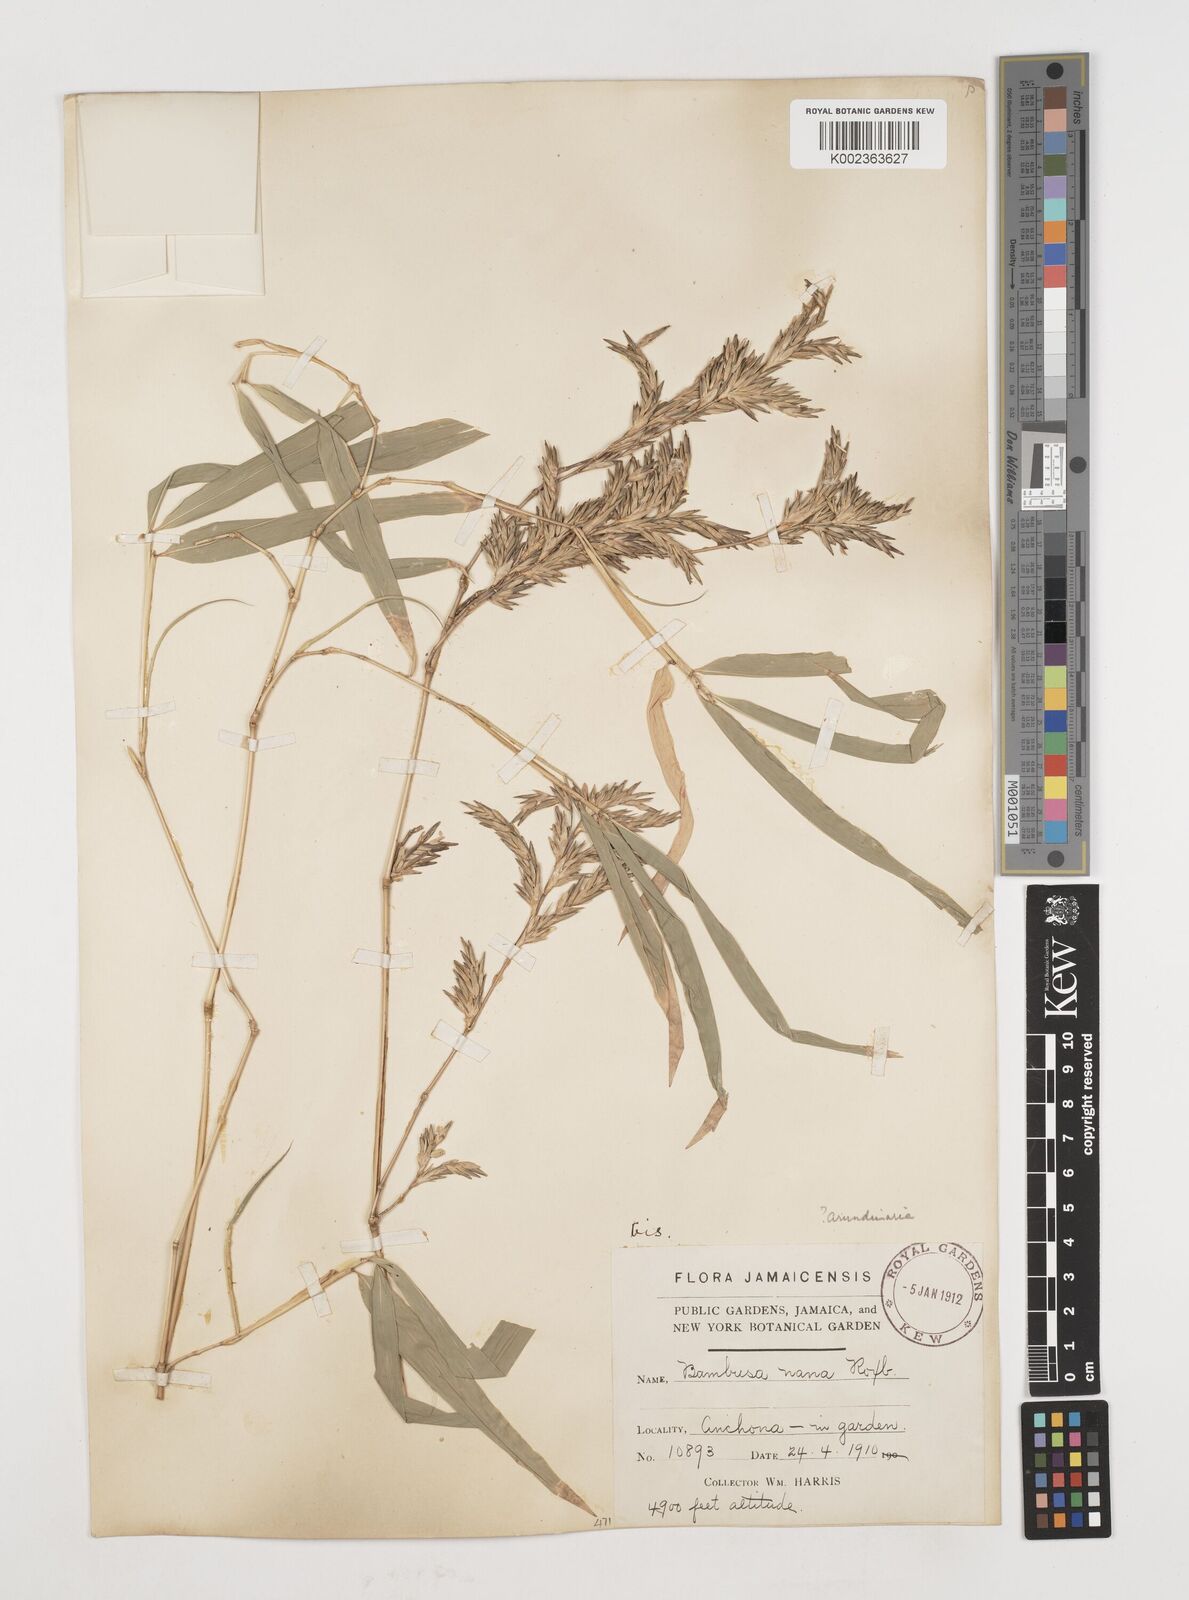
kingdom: Plantae
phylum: Tracheophyta
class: Liliopsida
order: Poales
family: Poaceae
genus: Himalayacalamus
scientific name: Himalayacalamus falconeri
